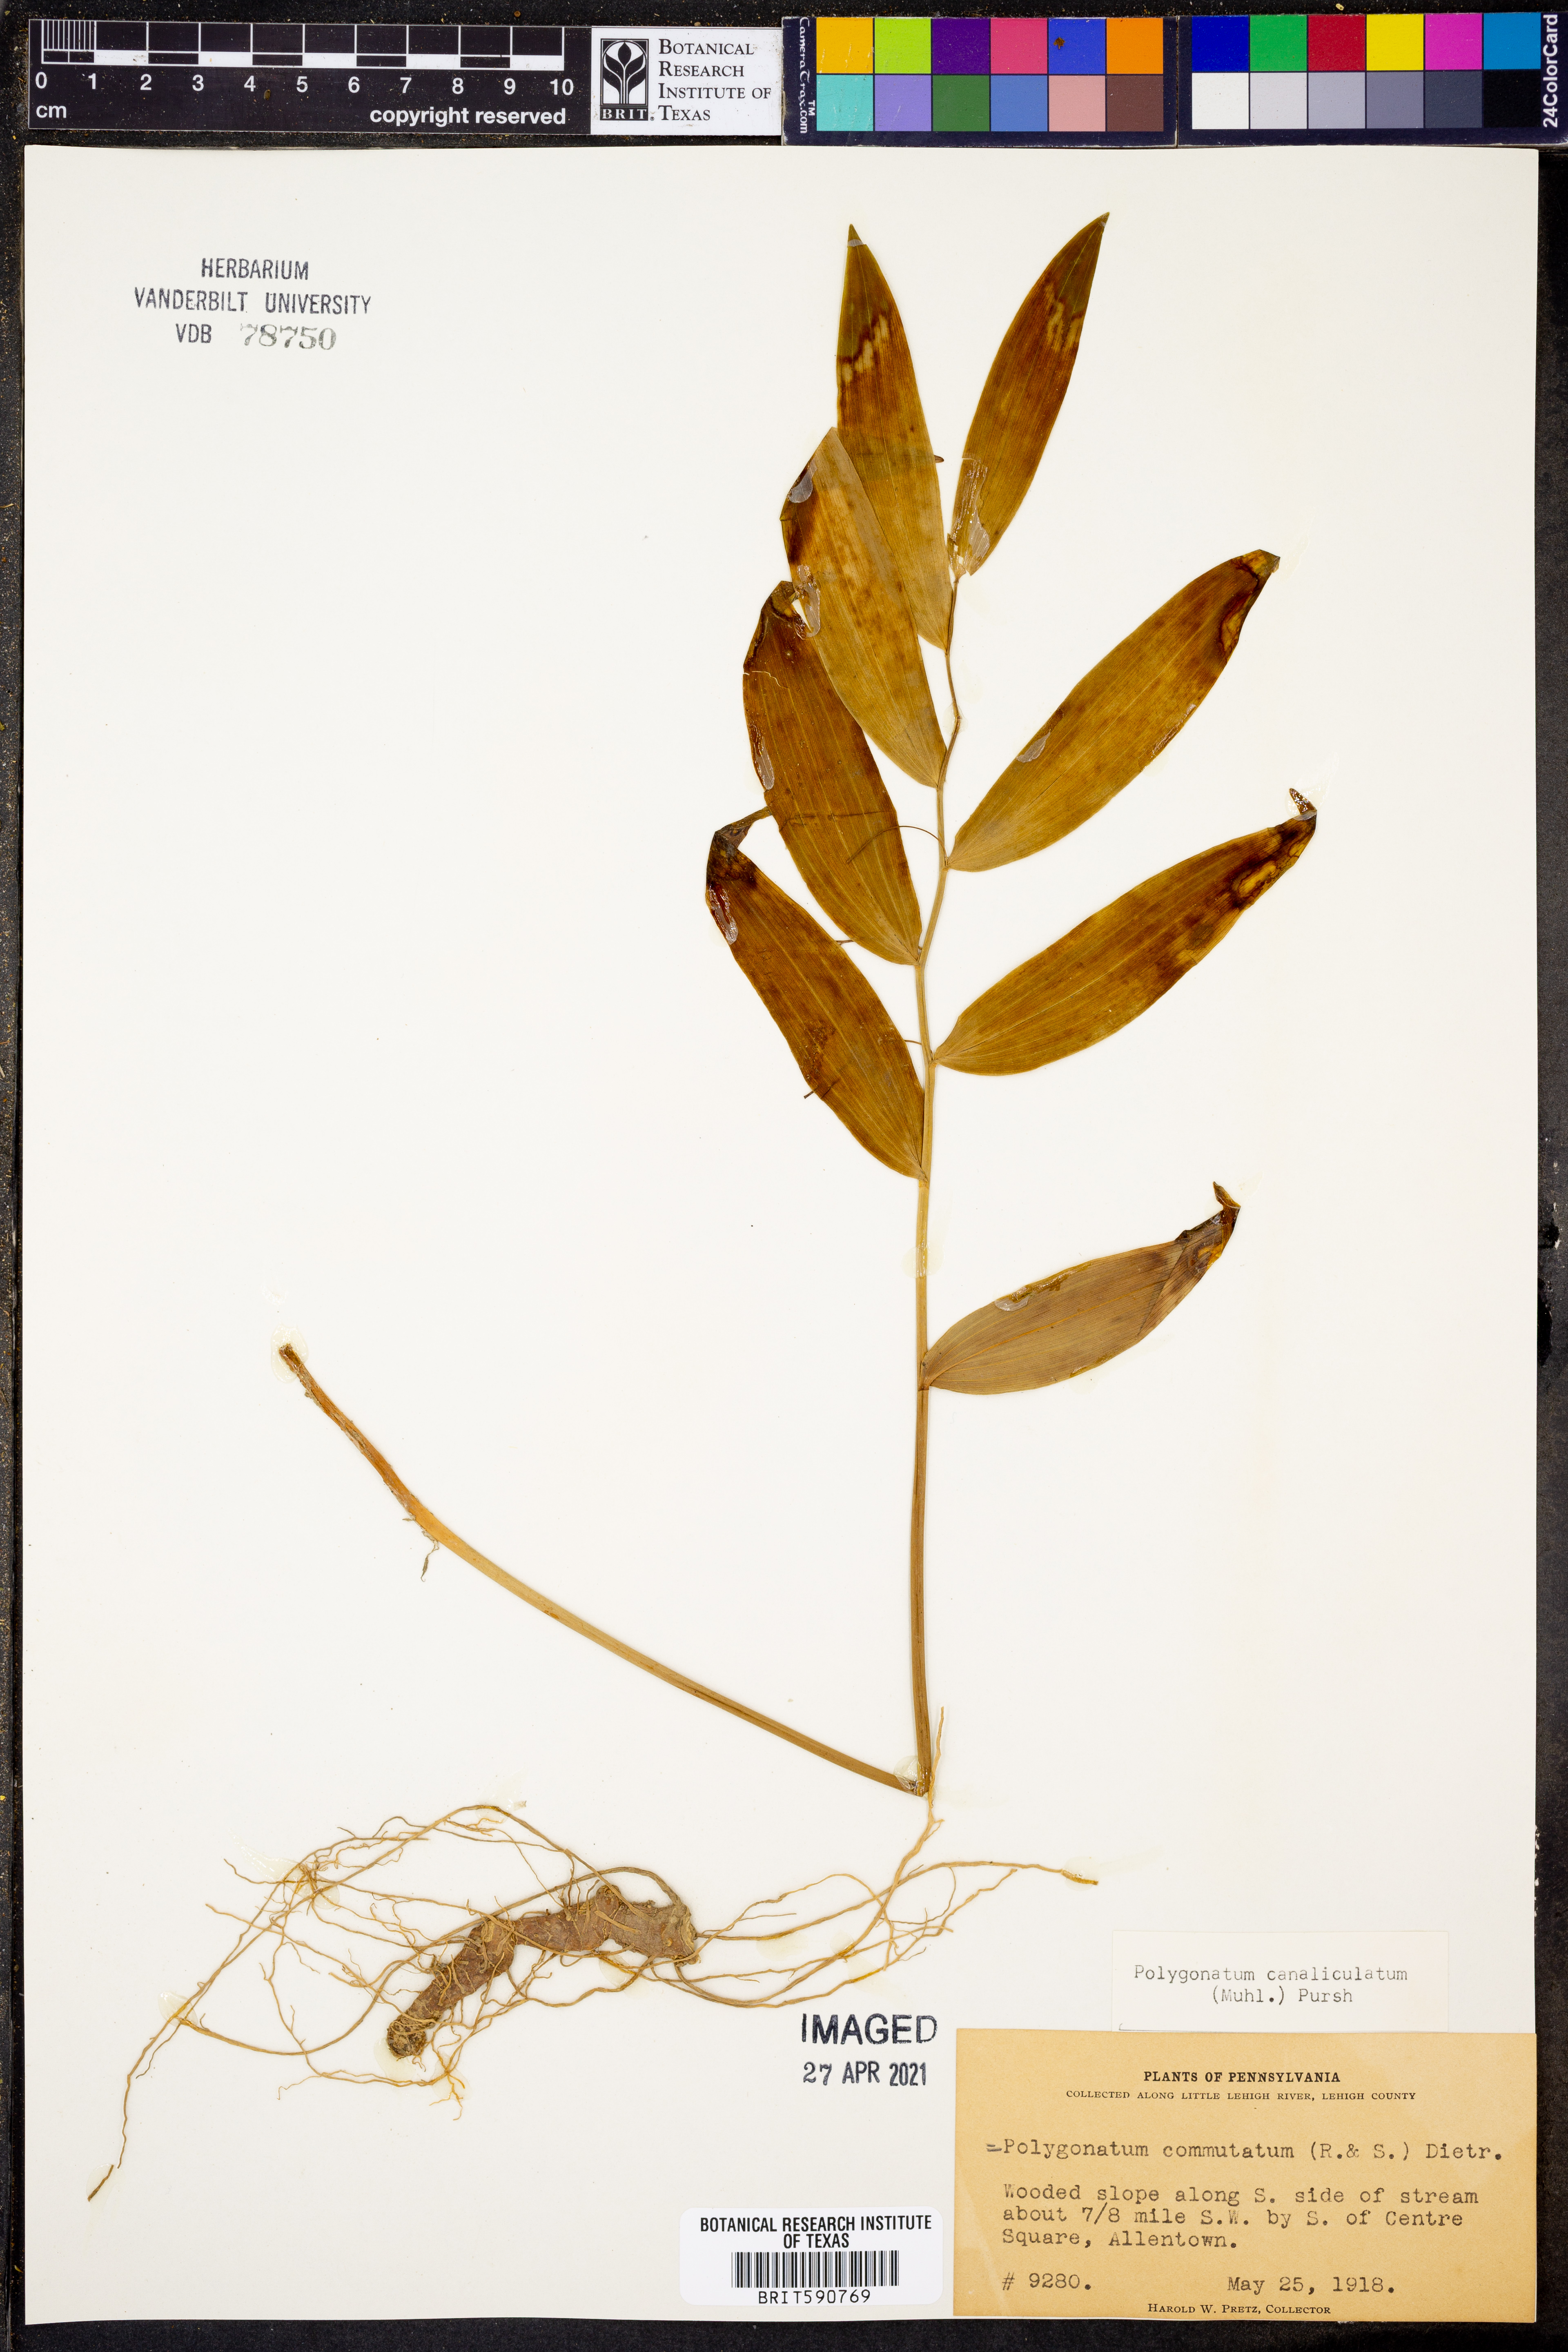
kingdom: Plantae
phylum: Tracheophyta
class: Liliopsida
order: Asparagales
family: Asparagaceae
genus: Polygonatum
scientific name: Polygonatum biflorum
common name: American solomon's-seal
